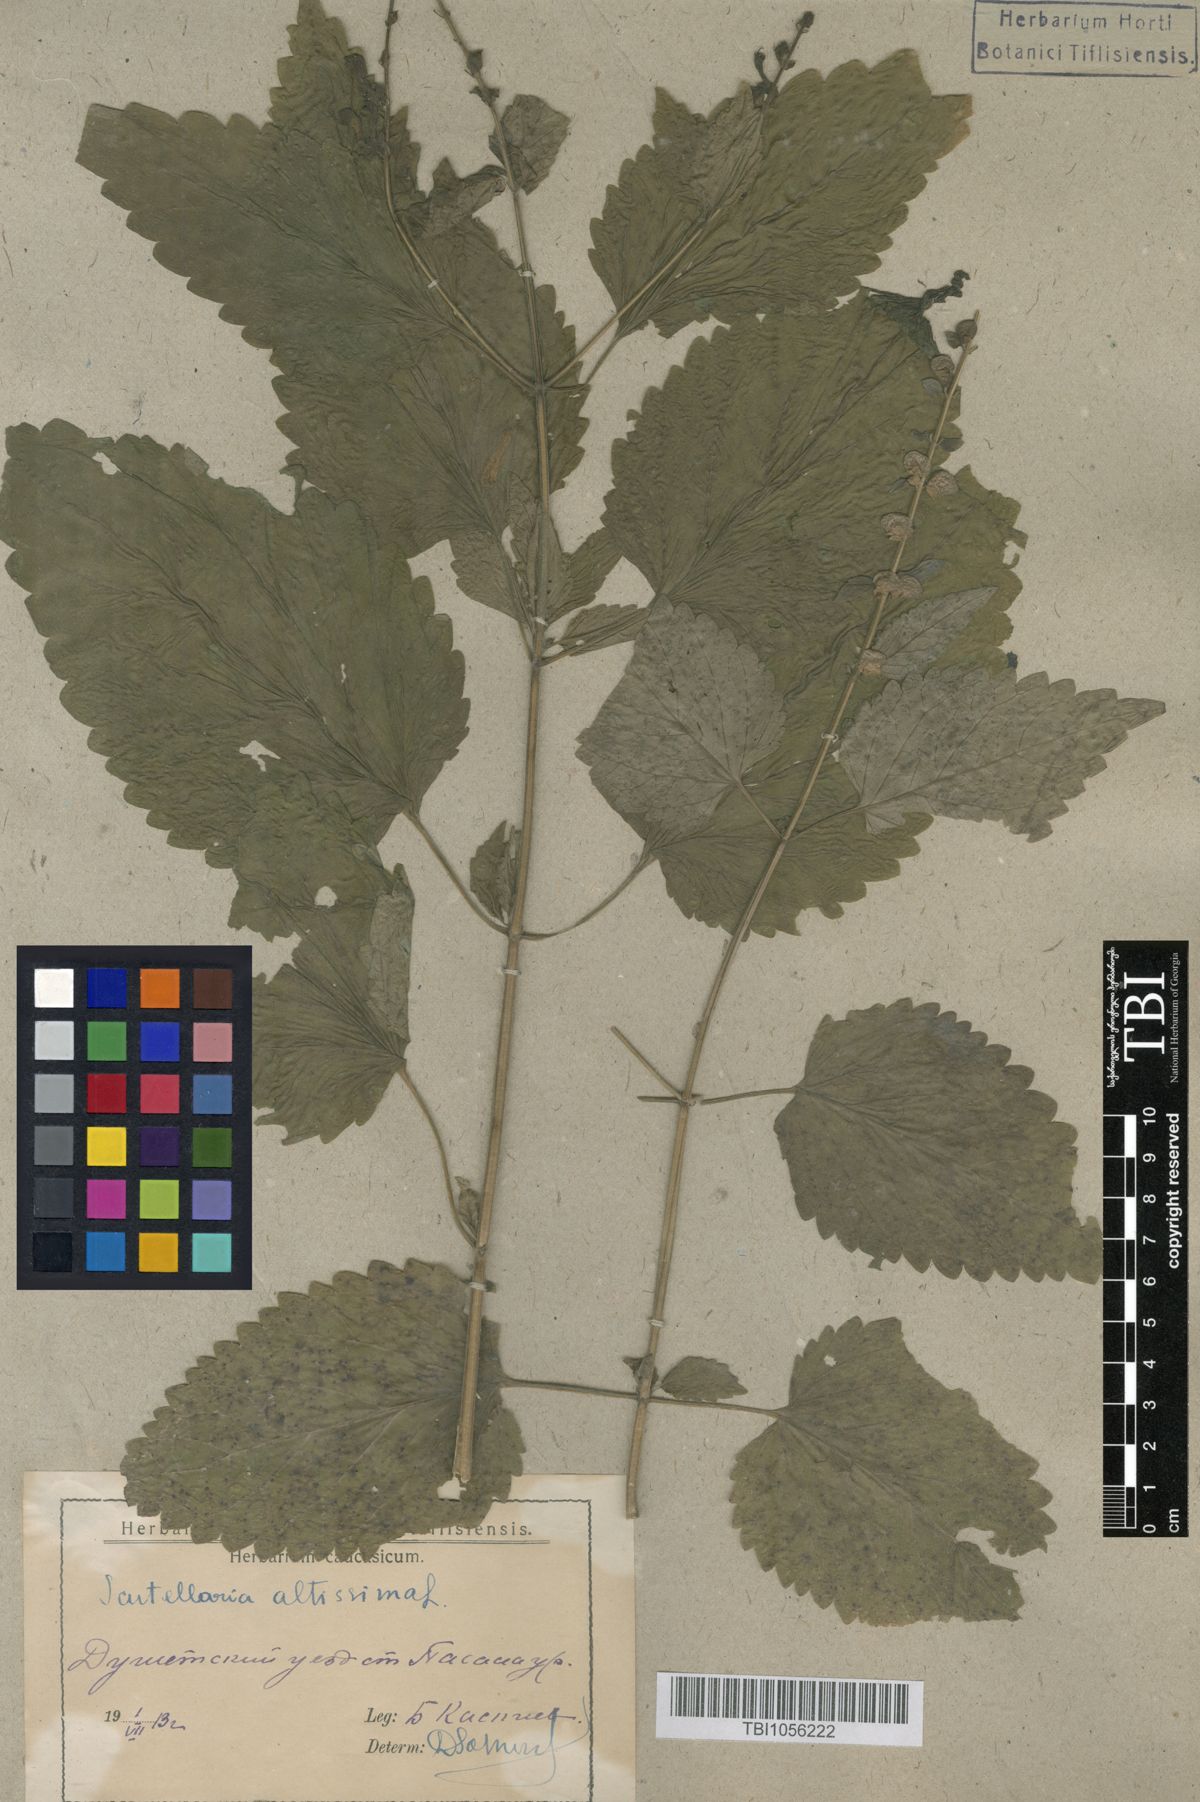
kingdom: Plantae
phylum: Tracheophyta
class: Magnoliopsida
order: Lamiales
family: Lamiaceae
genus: Scutellaria
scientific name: Scutellaria altissima
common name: Somerset skullcap
